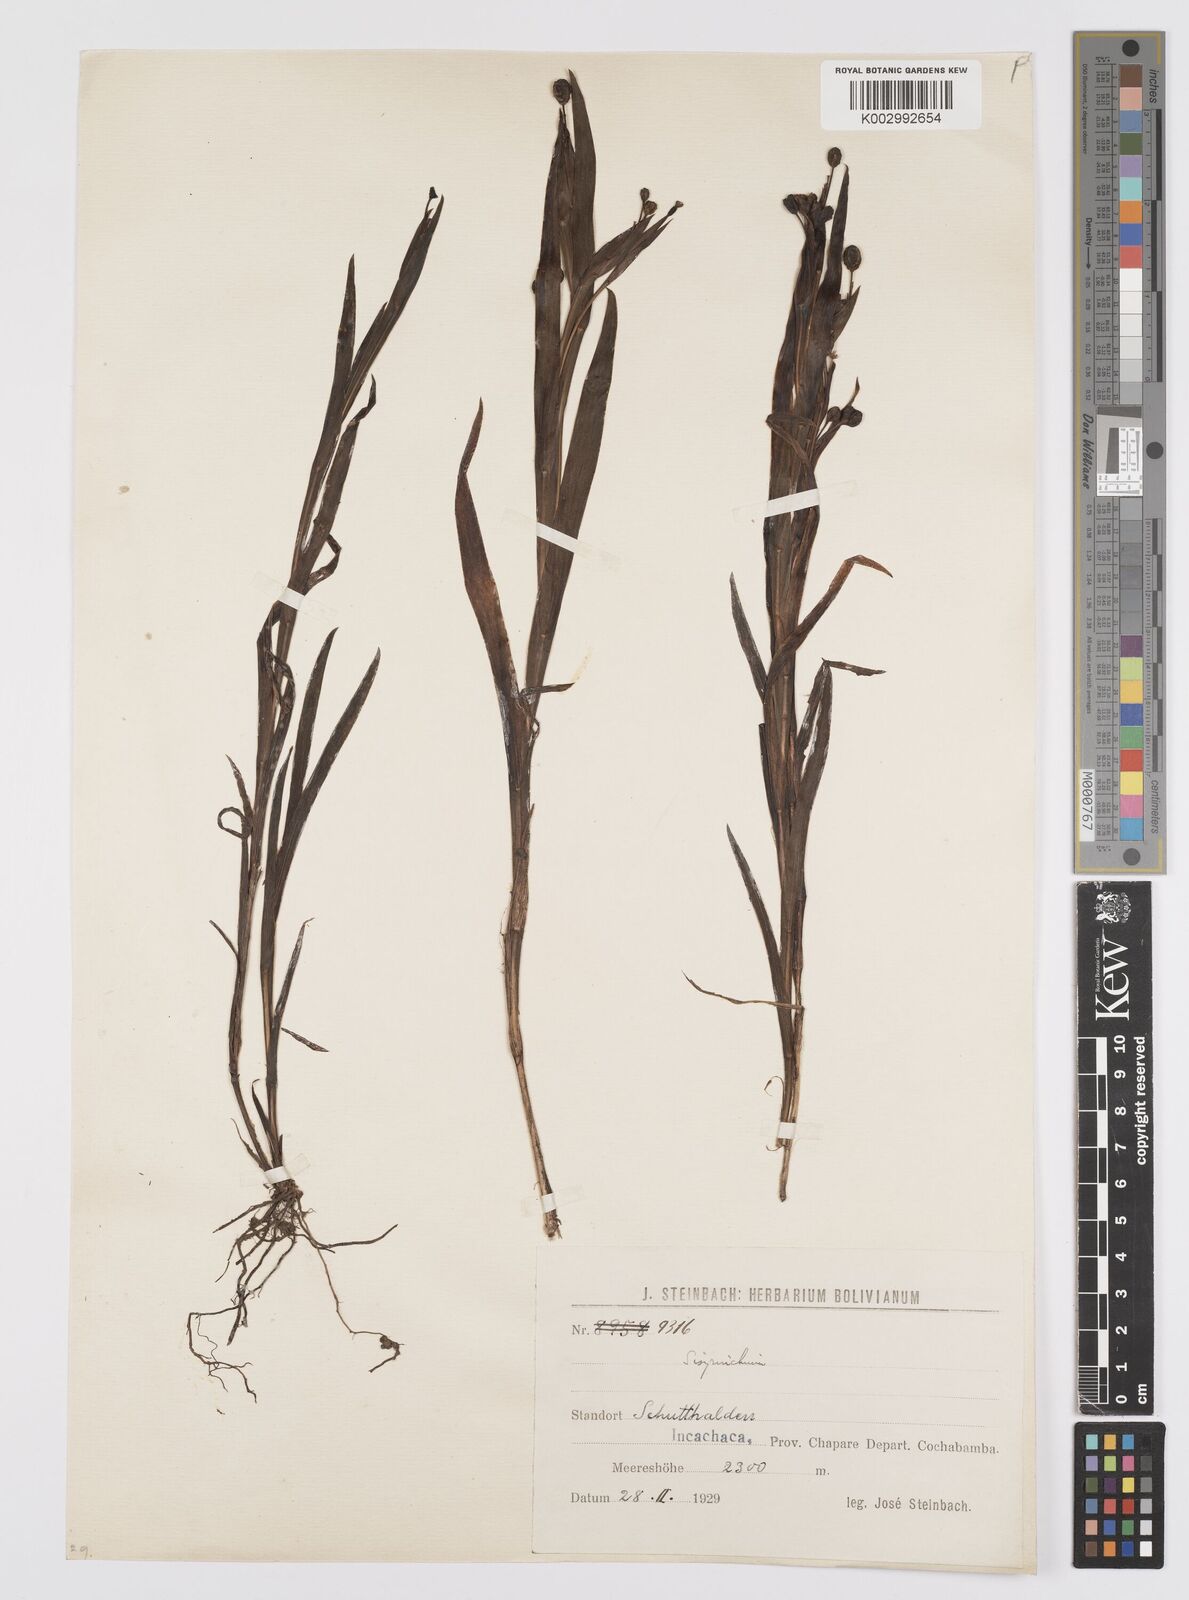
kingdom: Plantae
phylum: Tracheophyta
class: Liliopsida
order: Asparagales
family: Iridaceae
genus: Sisyrinchium
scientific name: Sisyrinchium
